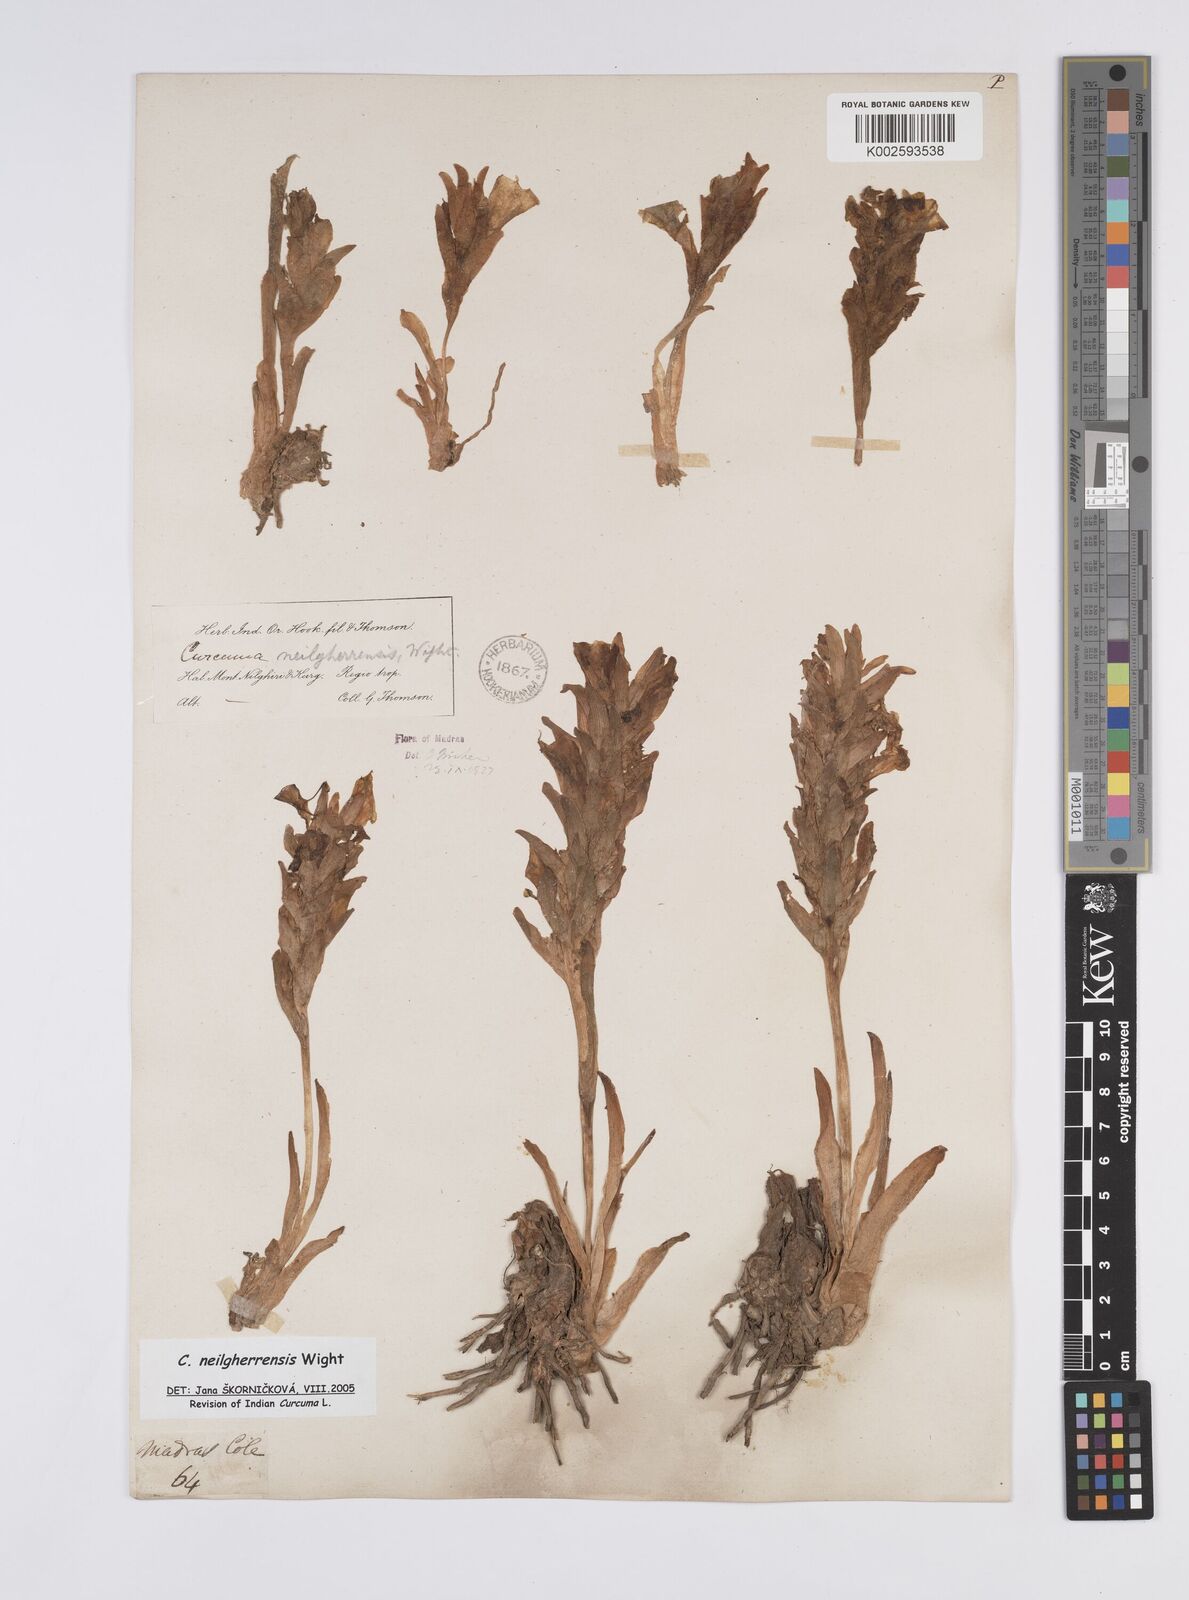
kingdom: Plantae
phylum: Tracheophyta
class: Liliopsida
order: Zingiberales
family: Zingiberaceae
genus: Curcuma
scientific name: Curcuma neilgherrensis
